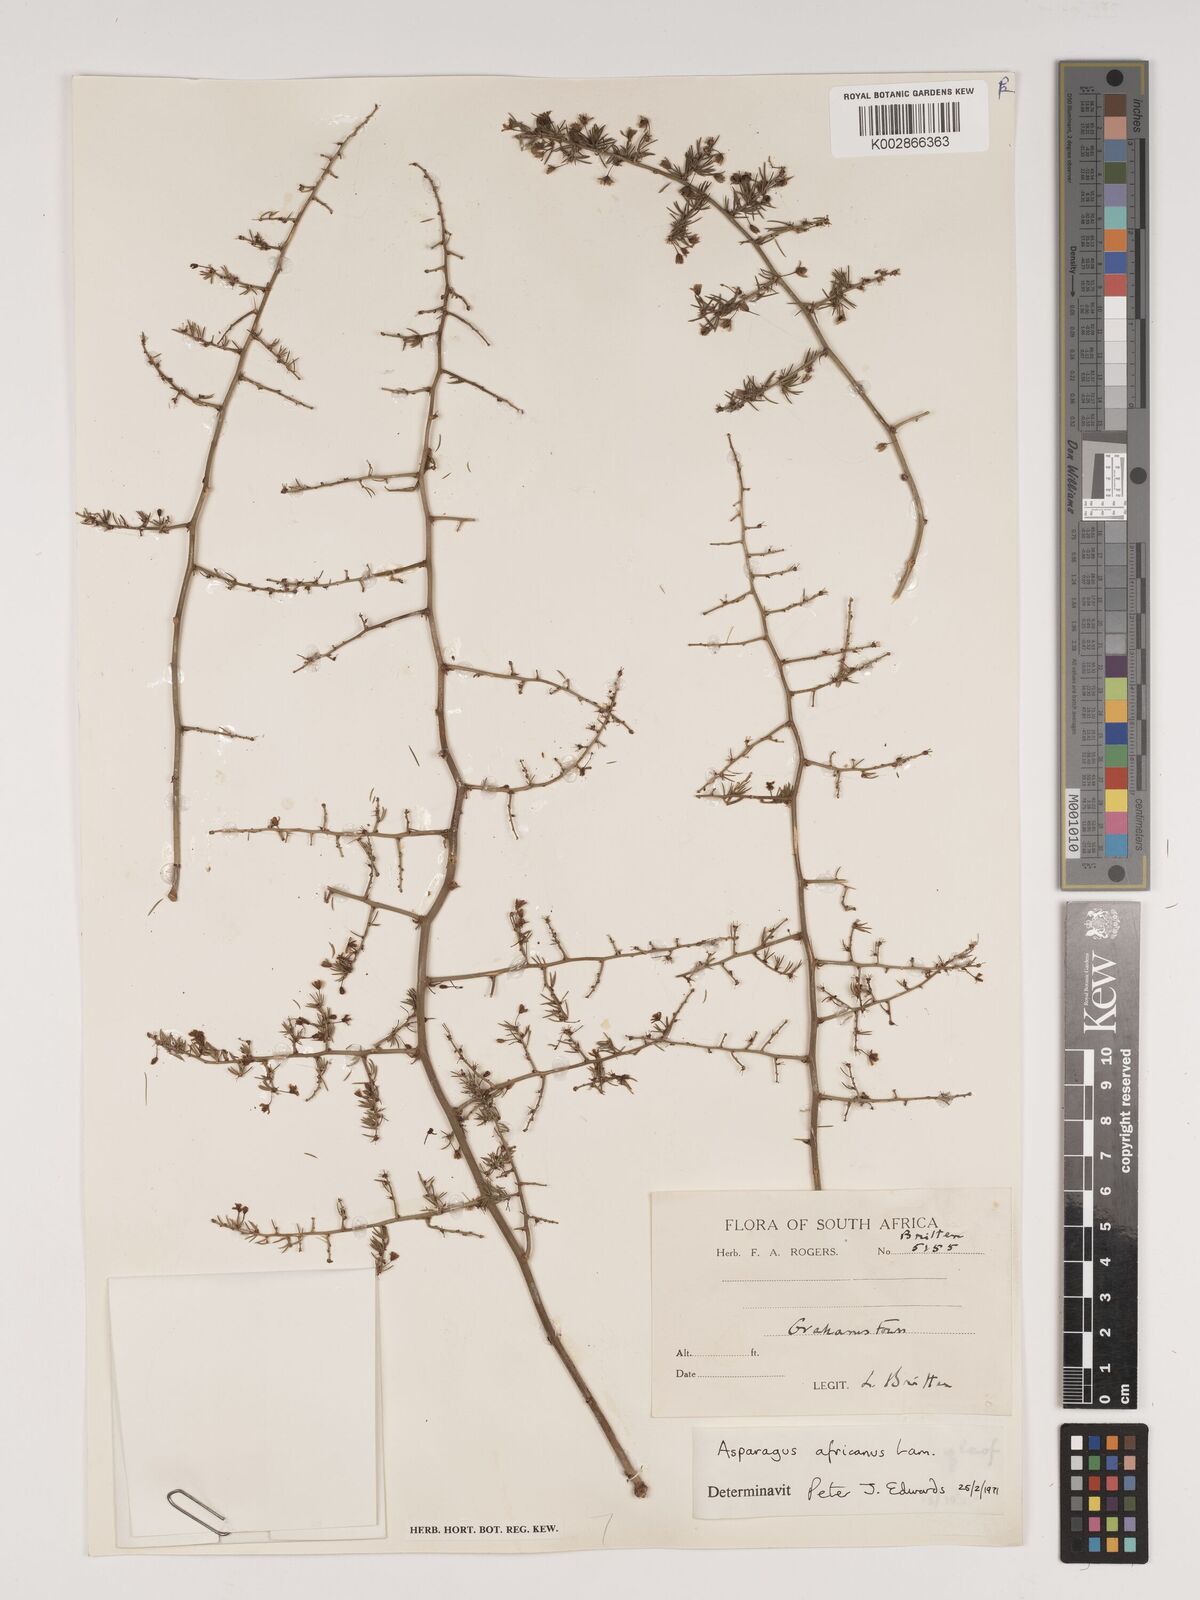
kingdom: Plantae
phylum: Tracheophyta
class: Liliopsida
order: Asparagales
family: Asparagaceae
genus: Asparagus
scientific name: Asparagus africanus
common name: Asparagus-fern
